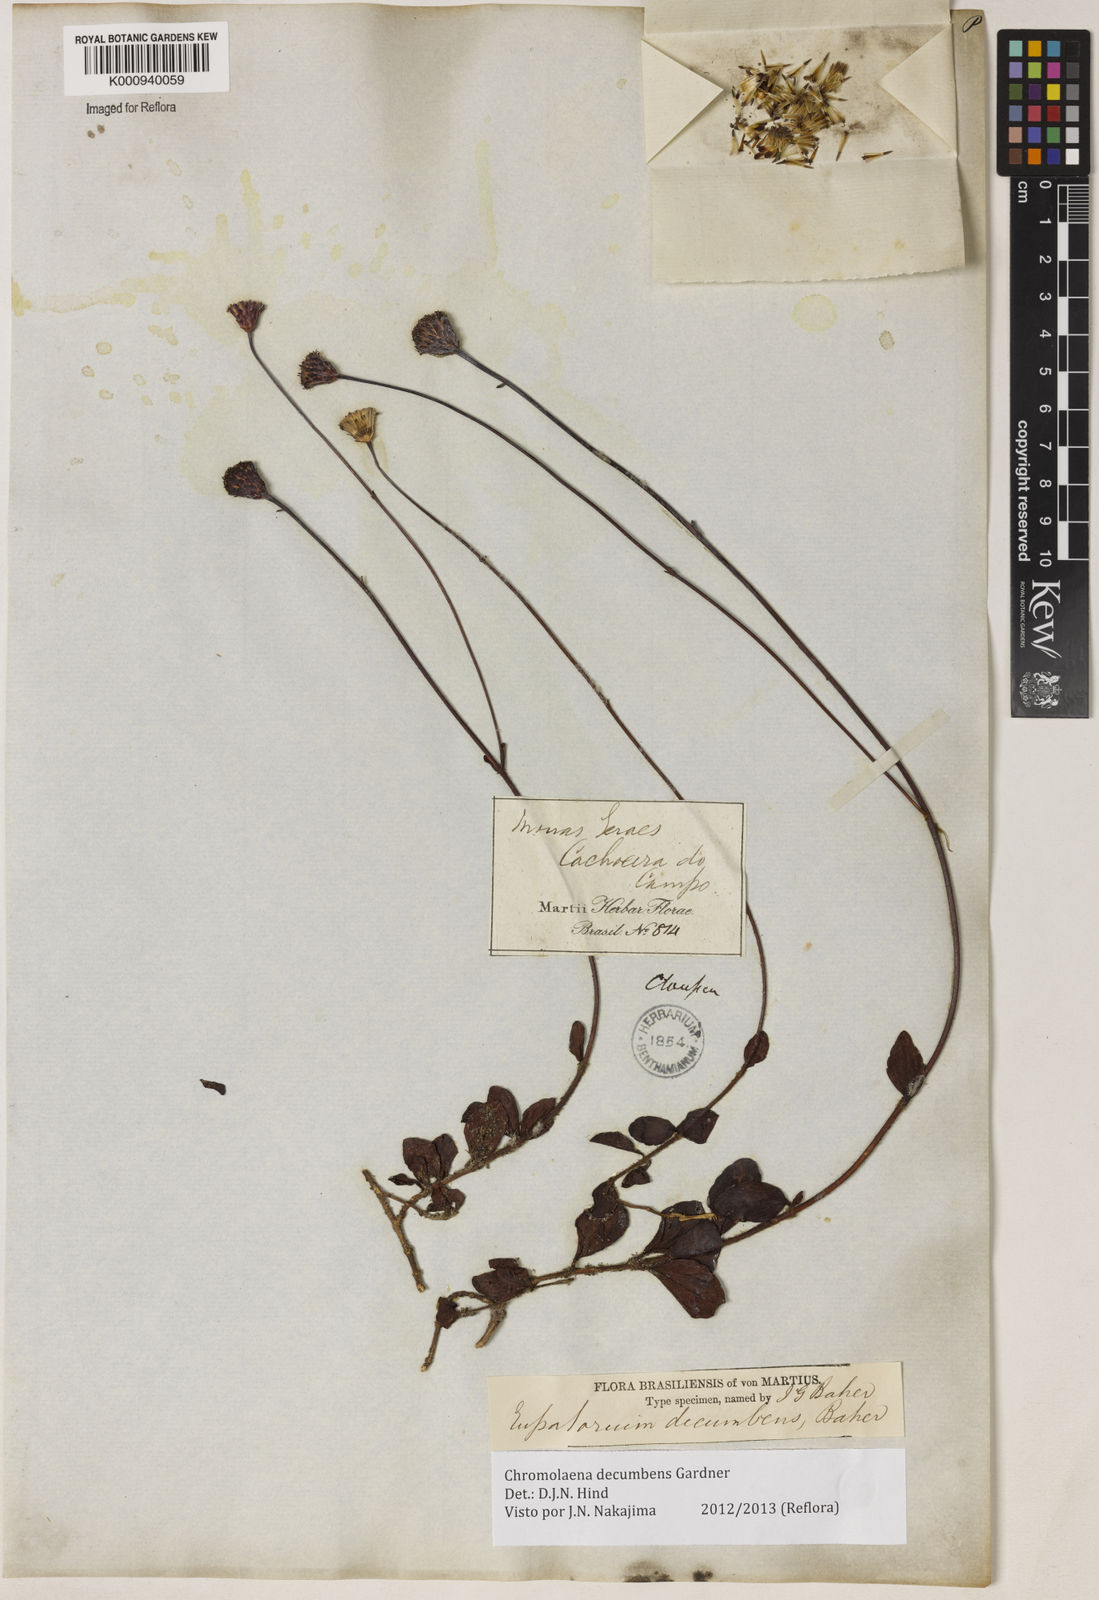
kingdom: Plantae
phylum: Tracheophyta
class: Magnoliopsida
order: Asterales
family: Asteraceae
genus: Praxelis
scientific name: Praxelis decumbens
